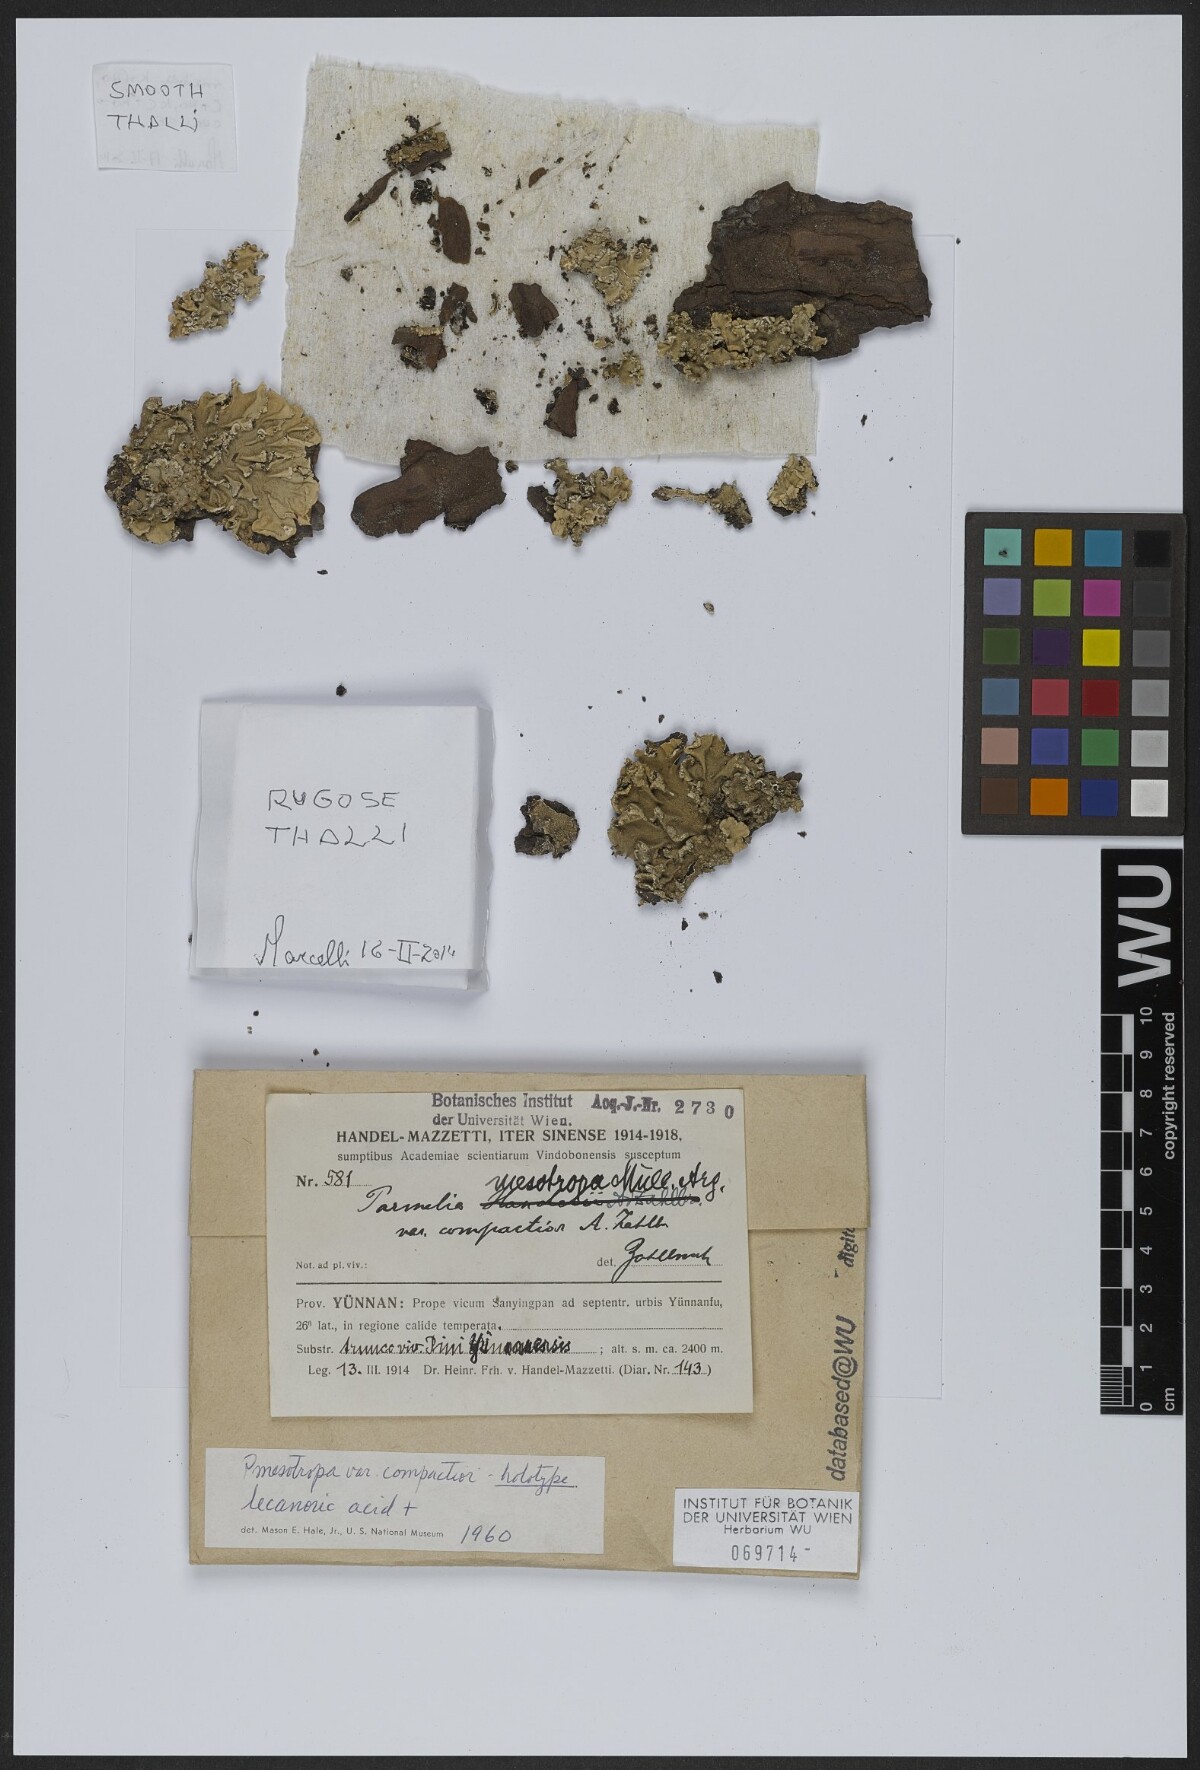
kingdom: Fungi
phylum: Ascomycota
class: Lecanoromycetes
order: Lecanorales
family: Parmeliaceae
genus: Parmotrema
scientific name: Parmotrema mesotropum
